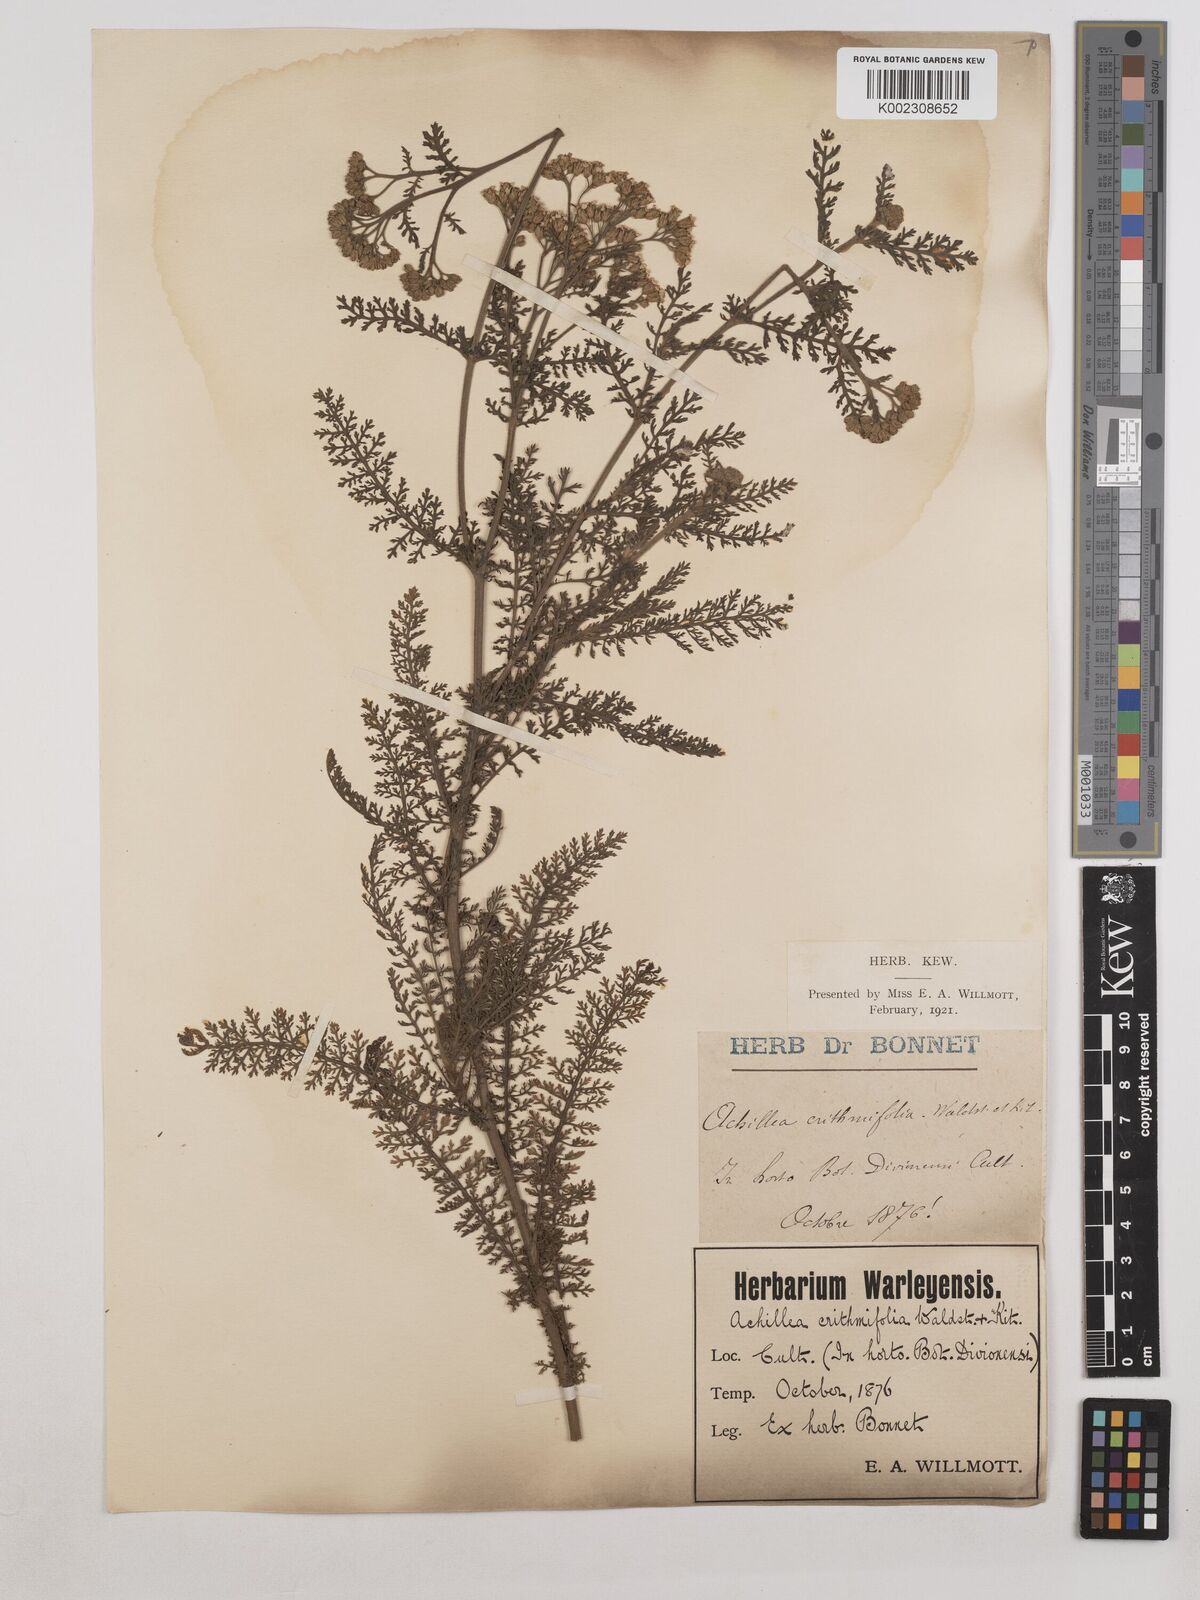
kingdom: Plantae
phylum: Tracheophyta
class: Magnoliopsida
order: Asterales
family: Asteraceae
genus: Achillea
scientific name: Achillea crithmifolia
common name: Yarrow
